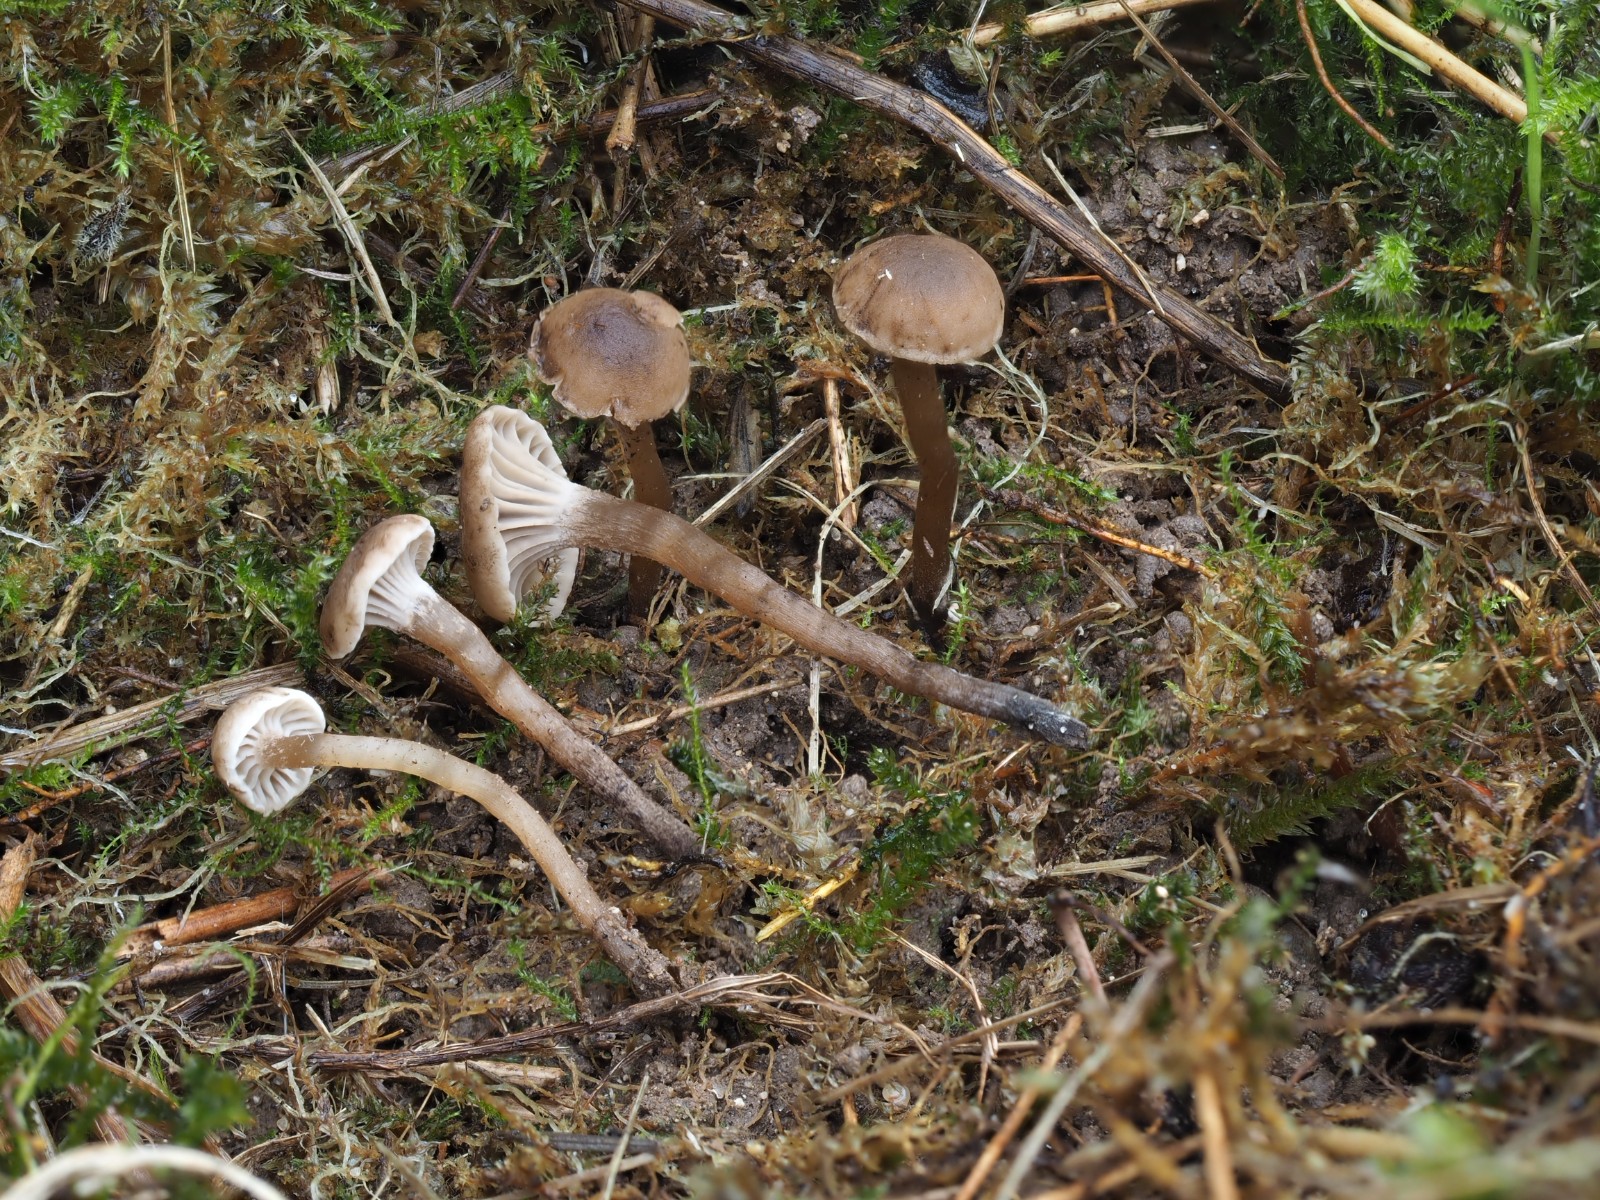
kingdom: Fungi
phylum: Basidiomycota
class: Agaricomycetes
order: Agaricales
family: Clavariaceae
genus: Hodophilus
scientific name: Hodophilus
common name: kratvokshat
